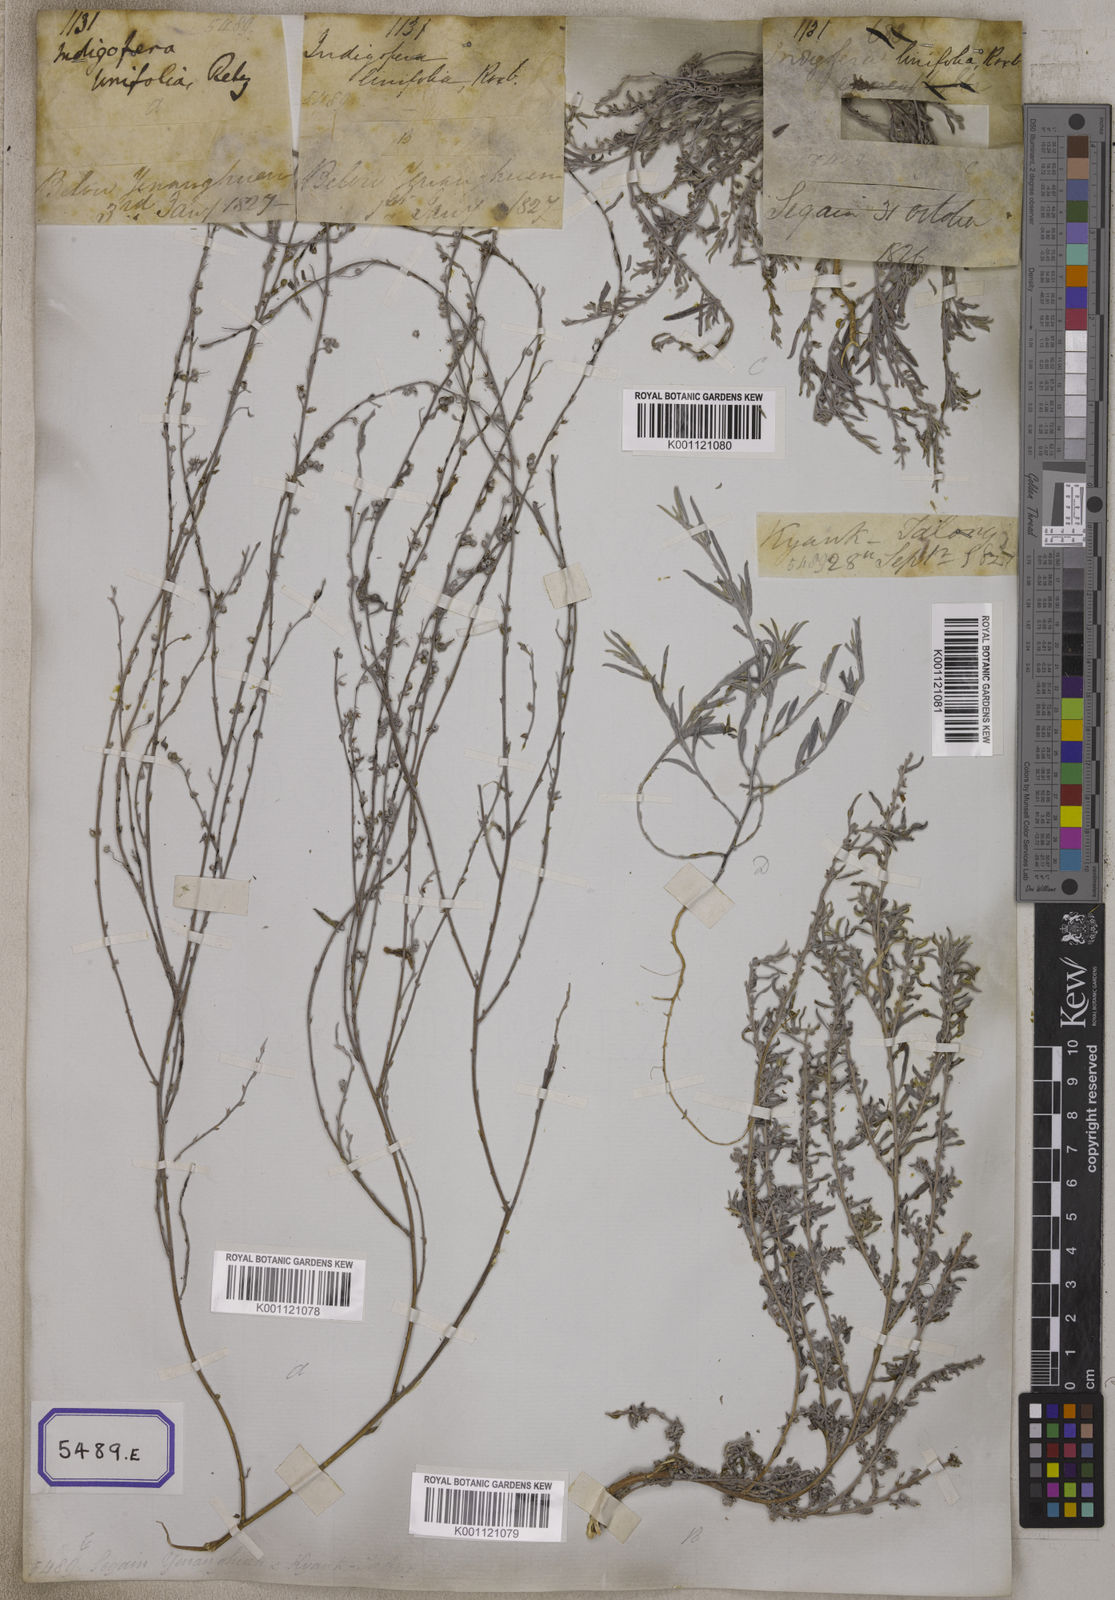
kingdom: Plantae
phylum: Tracheophyta
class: Magnoliopsida
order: Fabales
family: Fabaceae
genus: Indigofera
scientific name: Indigofera linifolia
